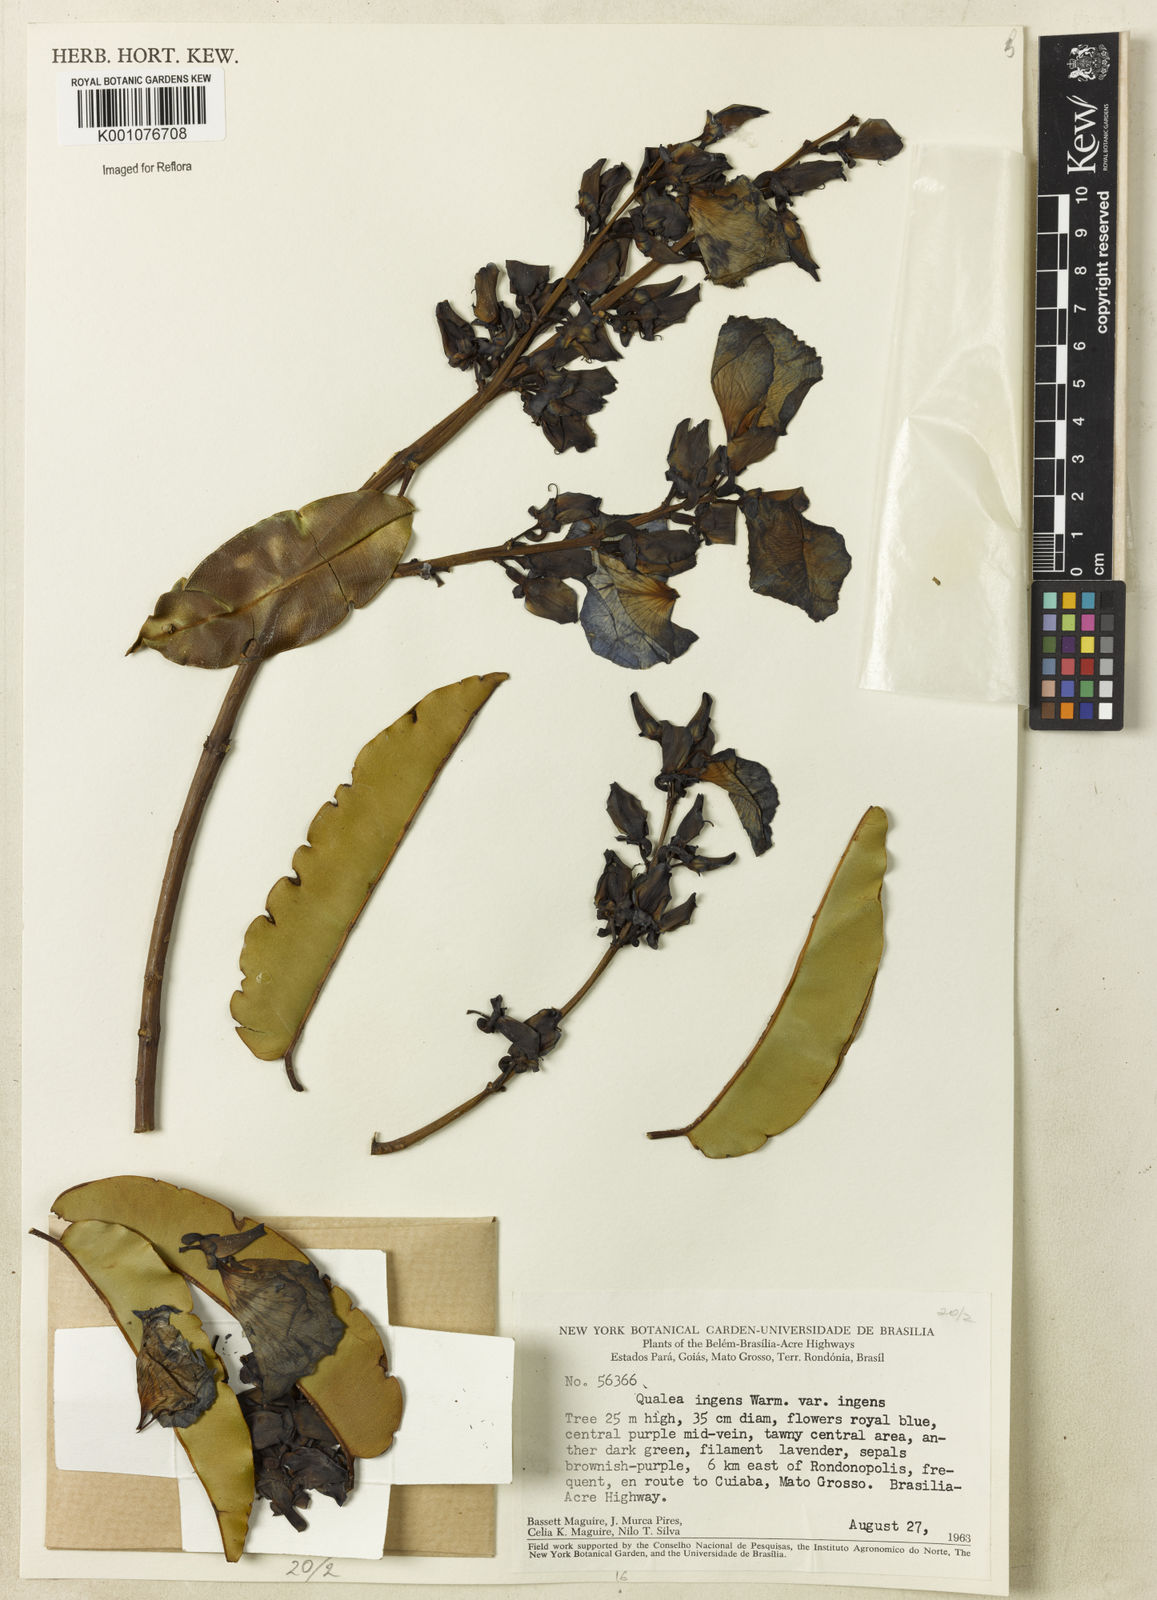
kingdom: Plantae
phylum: Tracheophyta
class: Magnoliopsida
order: Myrtales
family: Vochysiaceae
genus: Qualea
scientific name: Qualea ingens
